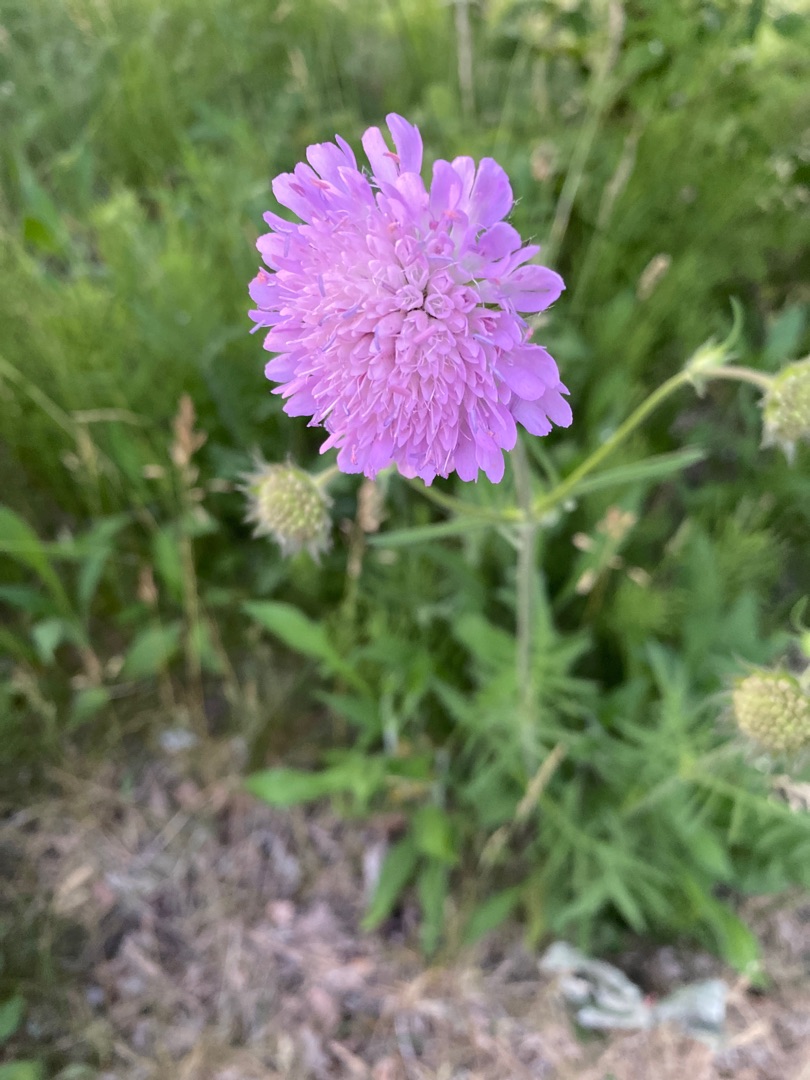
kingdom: Plantae
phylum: Tracheophyta
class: Magnoliopsida
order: Dipsacales
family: Caprifoliaceae
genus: Knautia
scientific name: Knautia arvensis
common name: Blåhat
